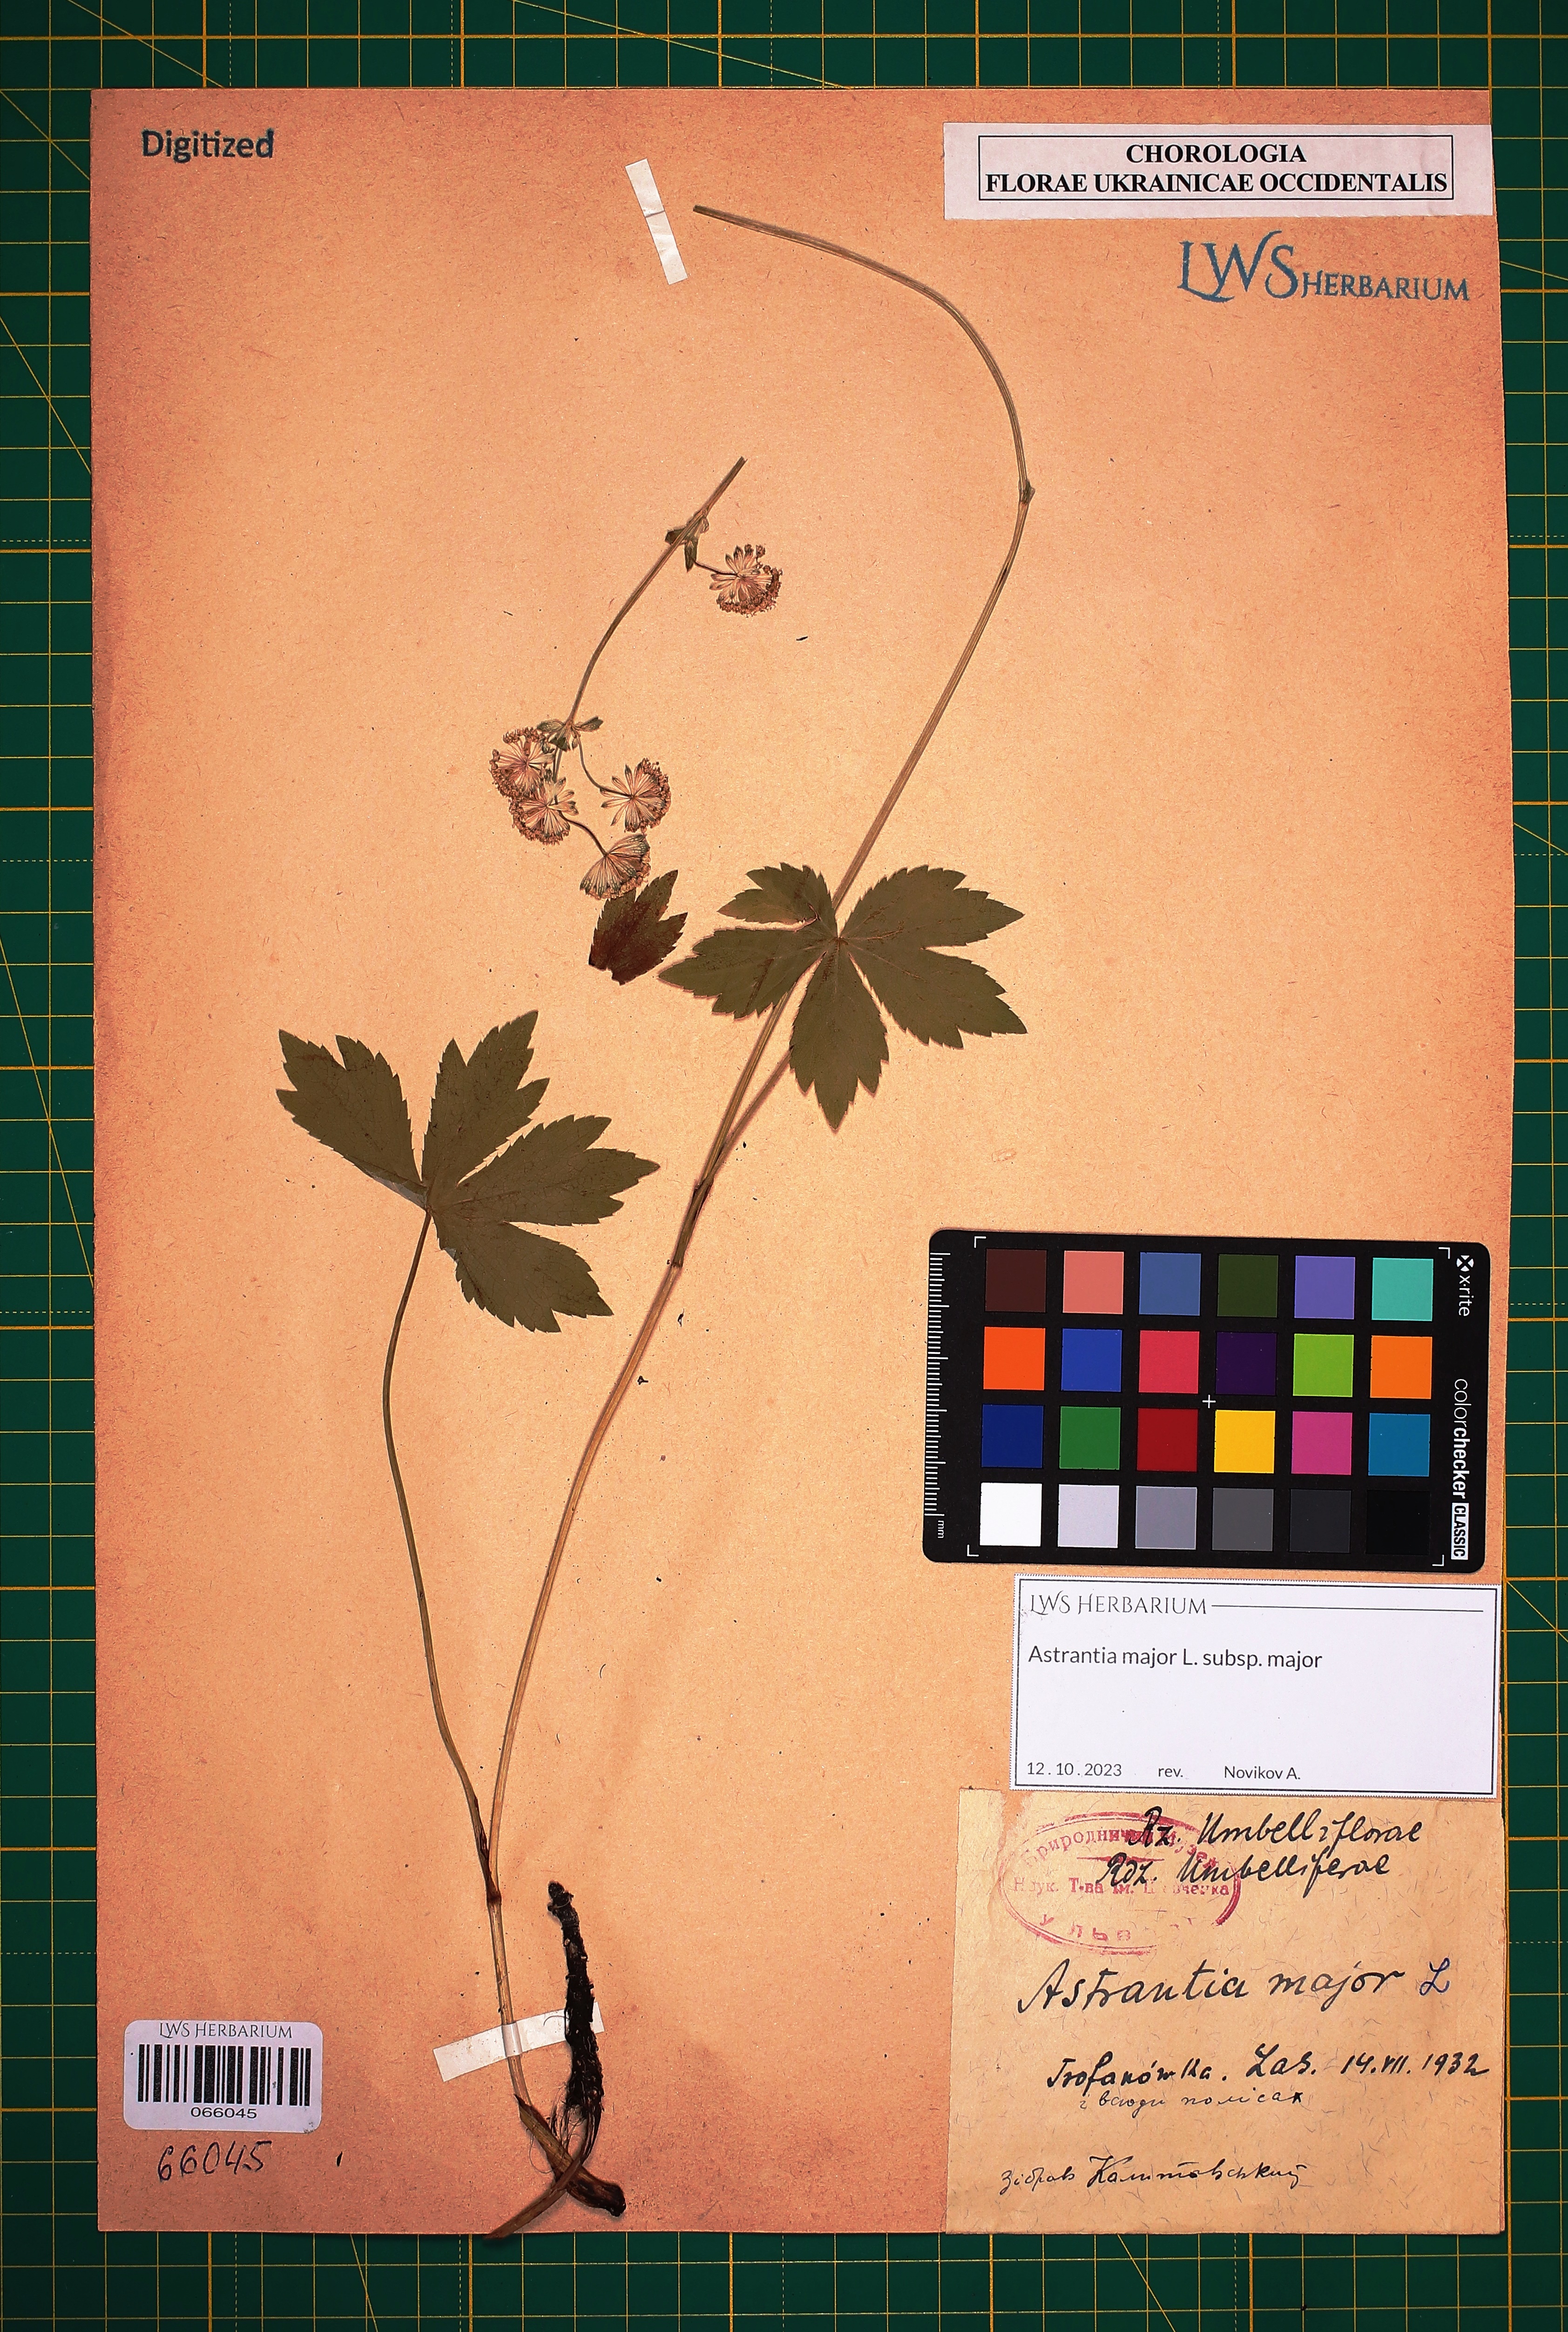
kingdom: Plantae
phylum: Tracheophyta
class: Magnoliopsida
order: Apiales
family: Apiaceae
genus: Astrantia
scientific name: Astrantia major
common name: Greater masterwort
